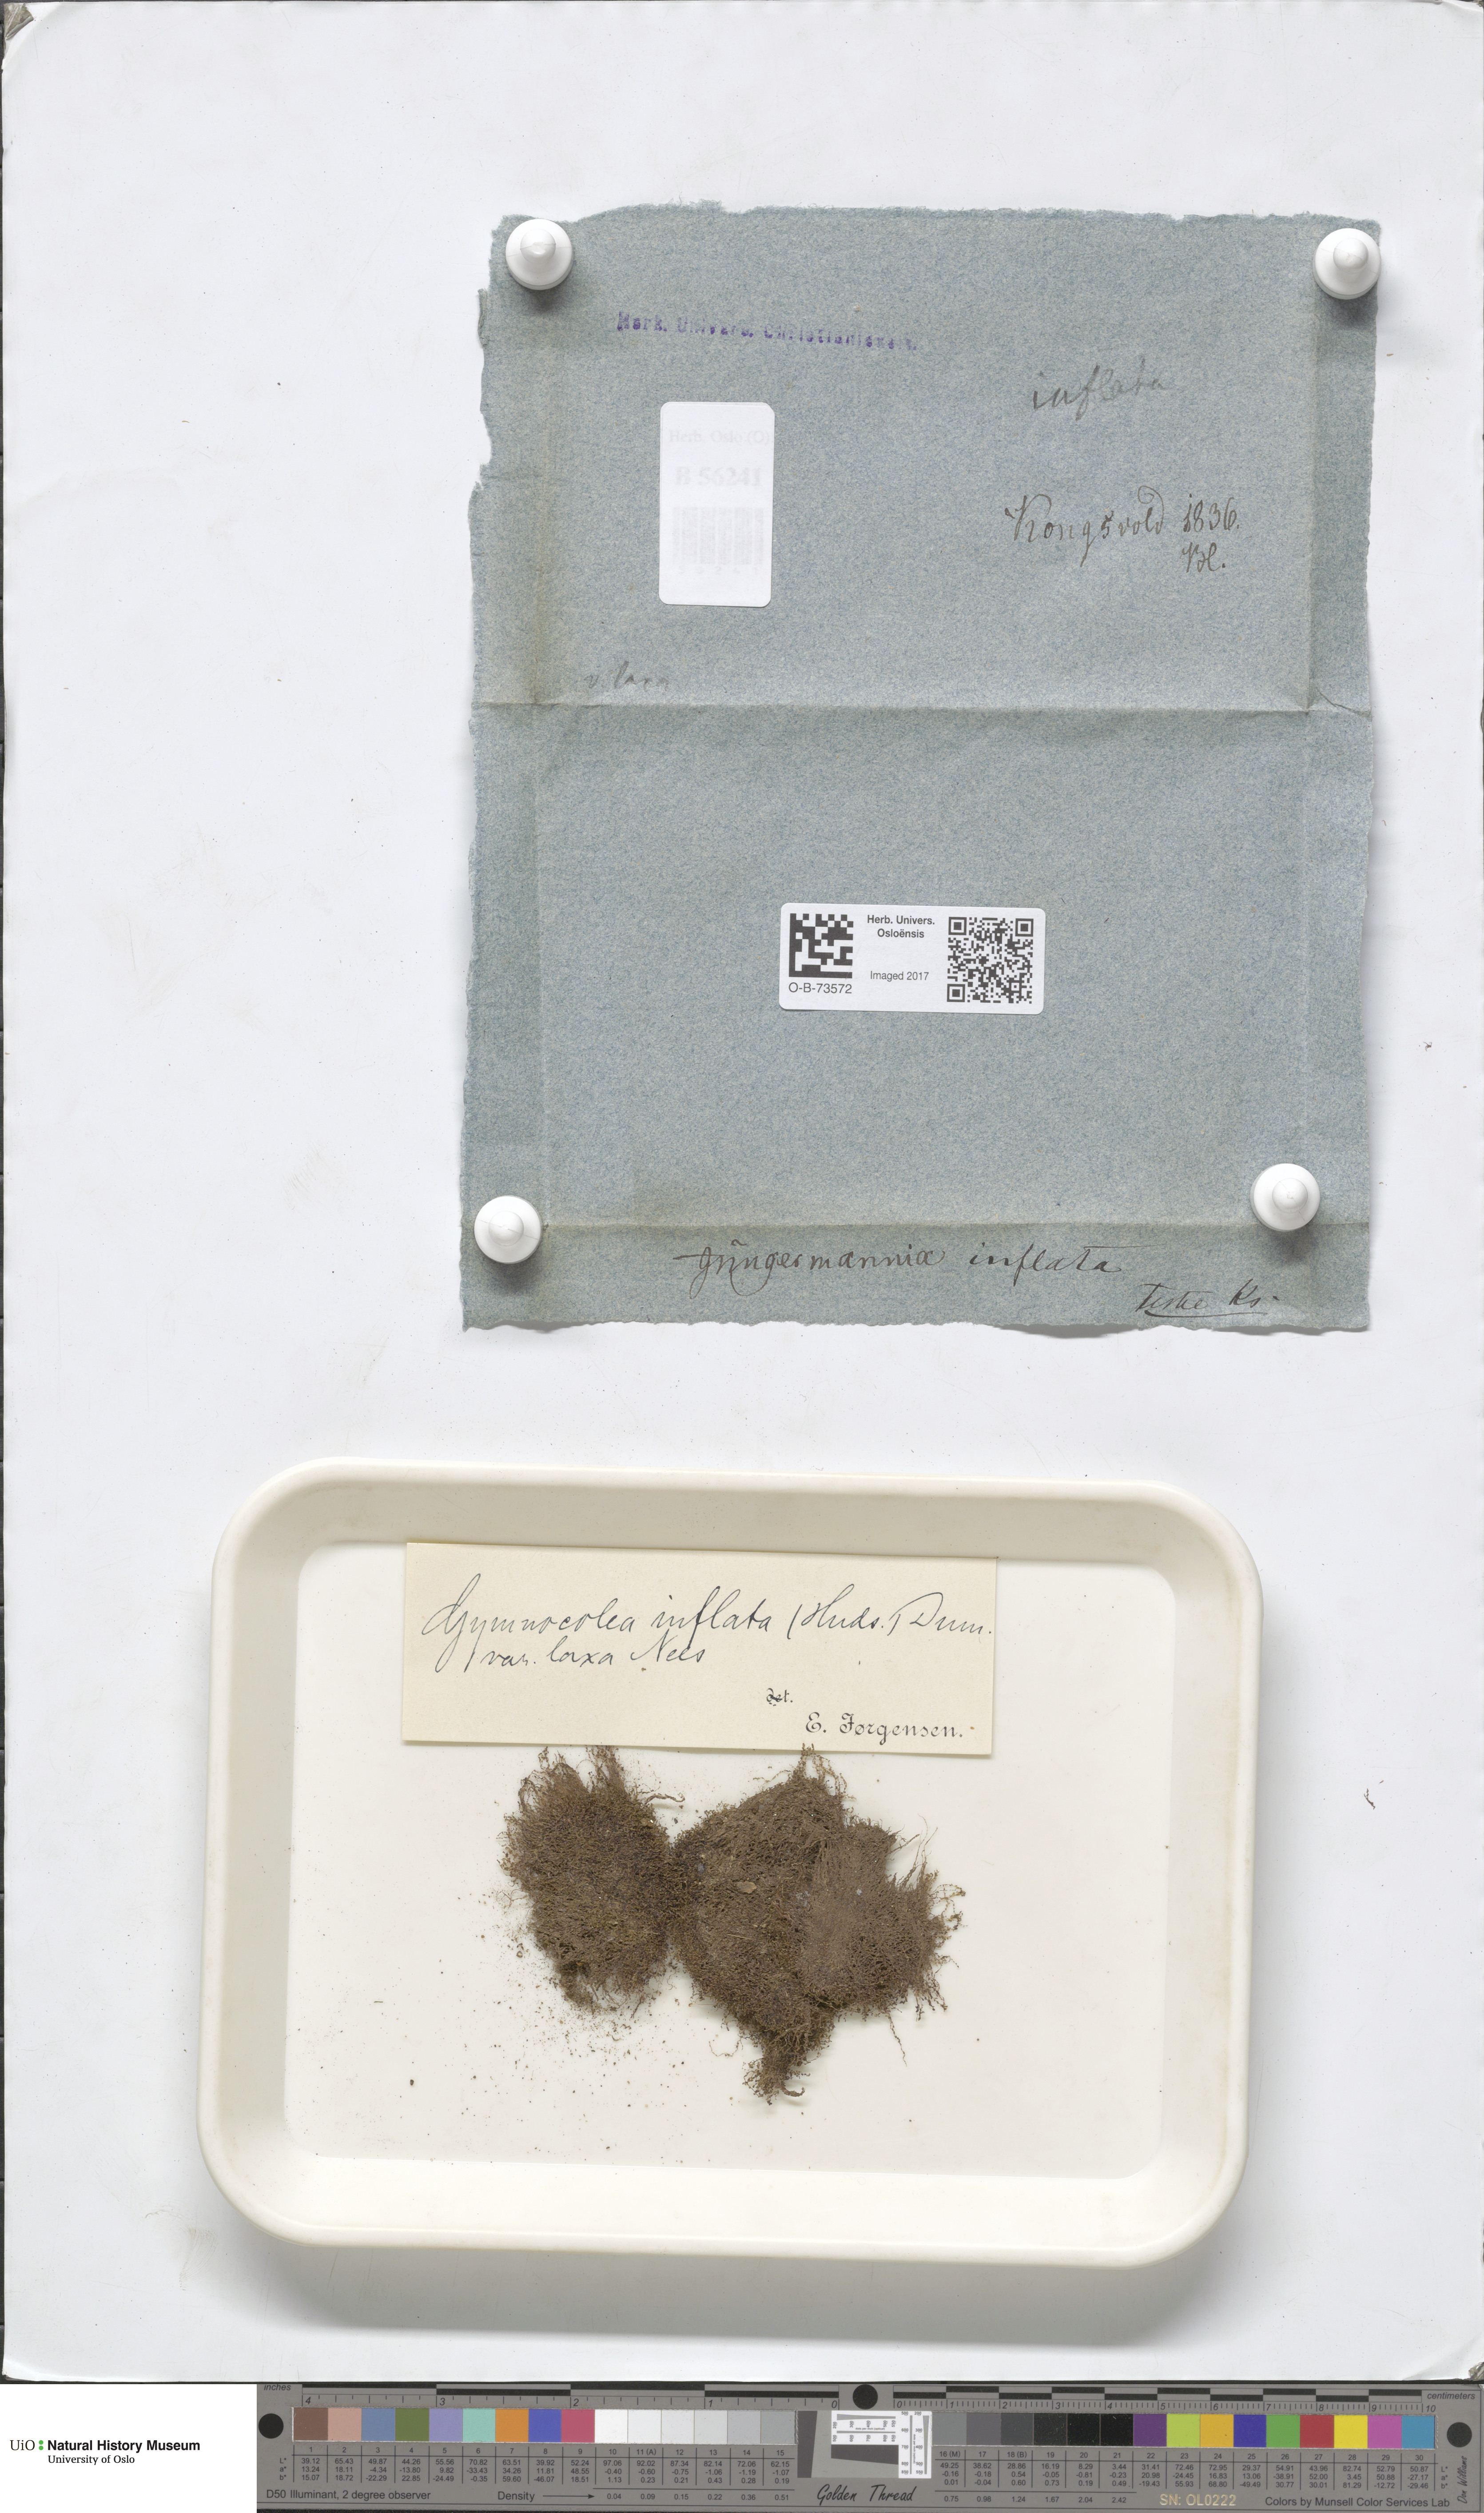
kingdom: Plantae
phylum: Marchantiophyta
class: Jungermanniopsida
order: Jungermanniales
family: Anastrophyllaceae
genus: Gymnocolea
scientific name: Gymnocolea inflata
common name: Inflated notchwort
